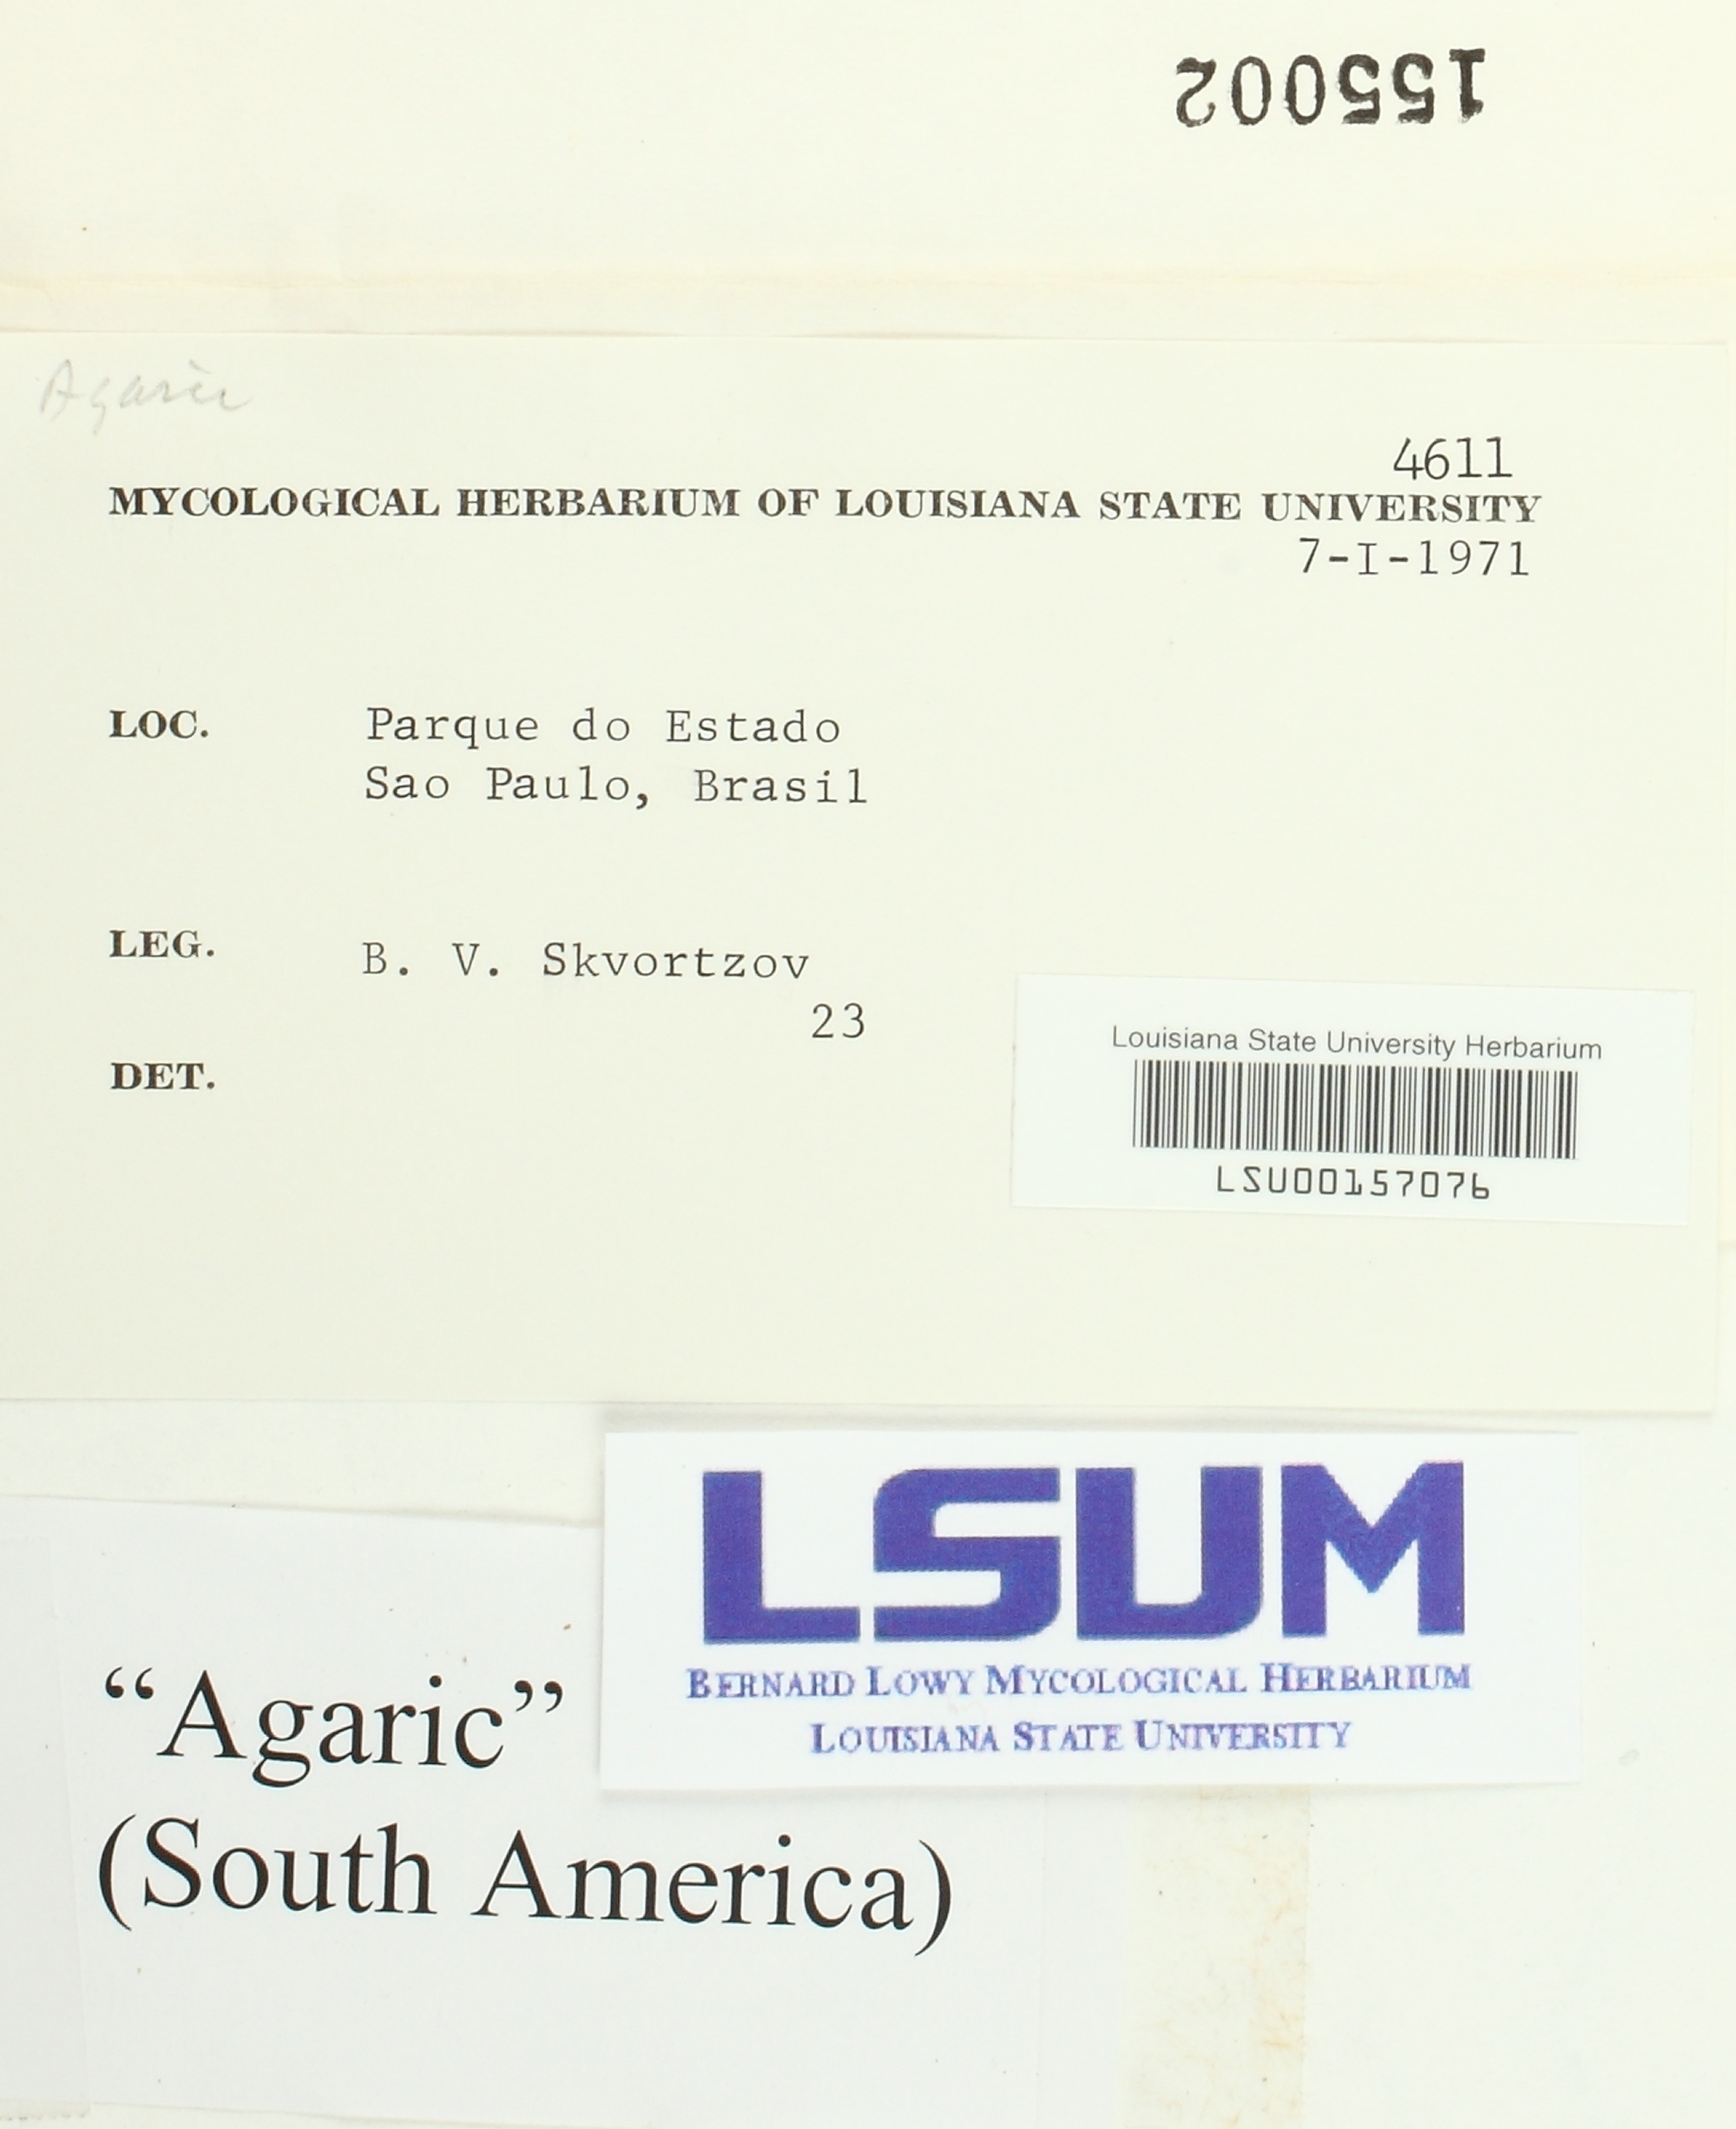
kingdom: Fungi
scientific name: Fungi
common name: Fungi
